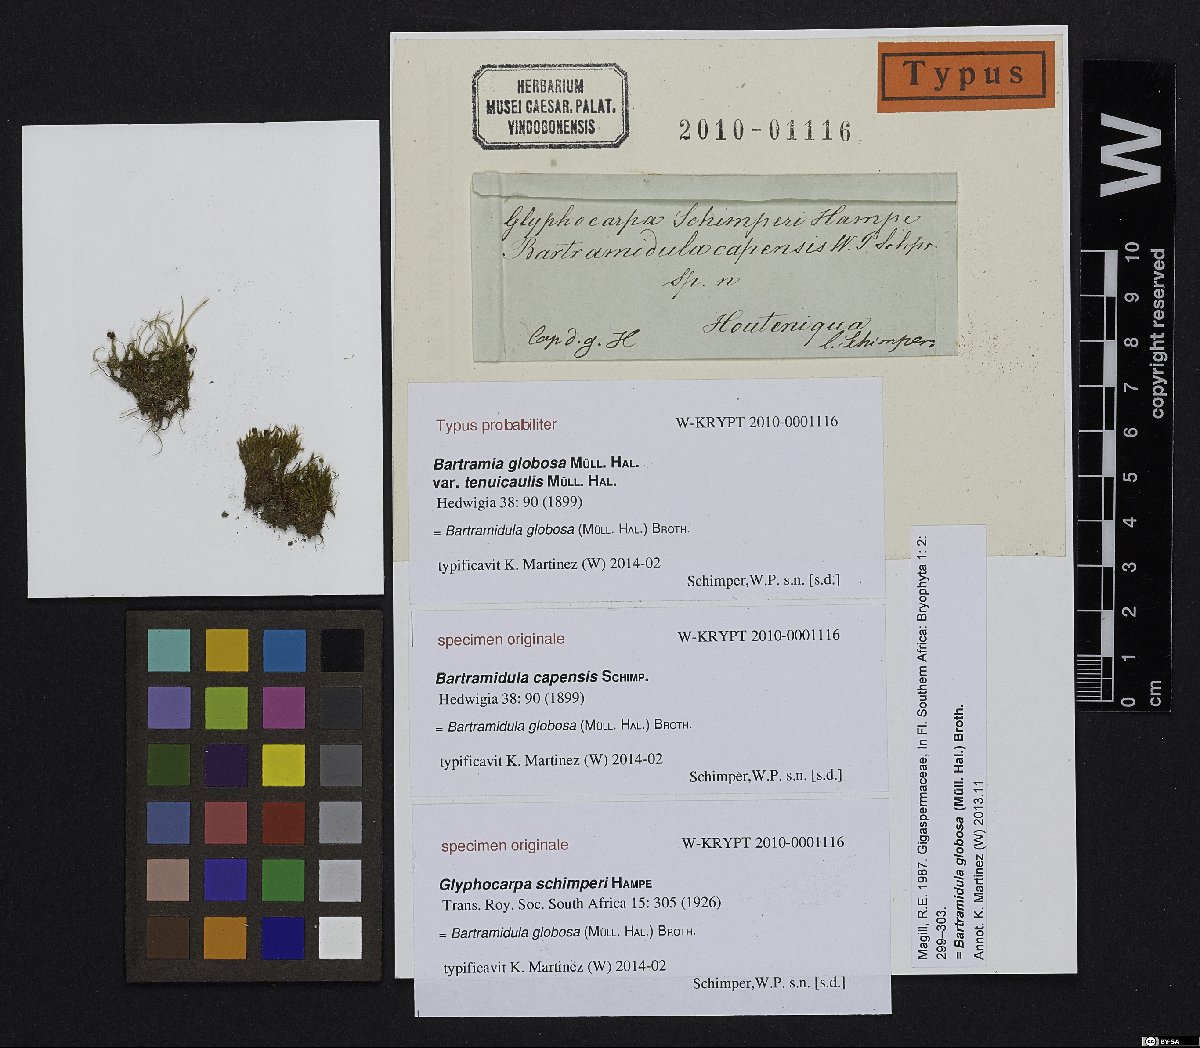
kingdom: Plantae
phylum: Bryophyta
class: Bryopsida
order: Bartramiales
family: Bartramiaceae
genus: Philonotis
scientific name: Philonotis globosa
